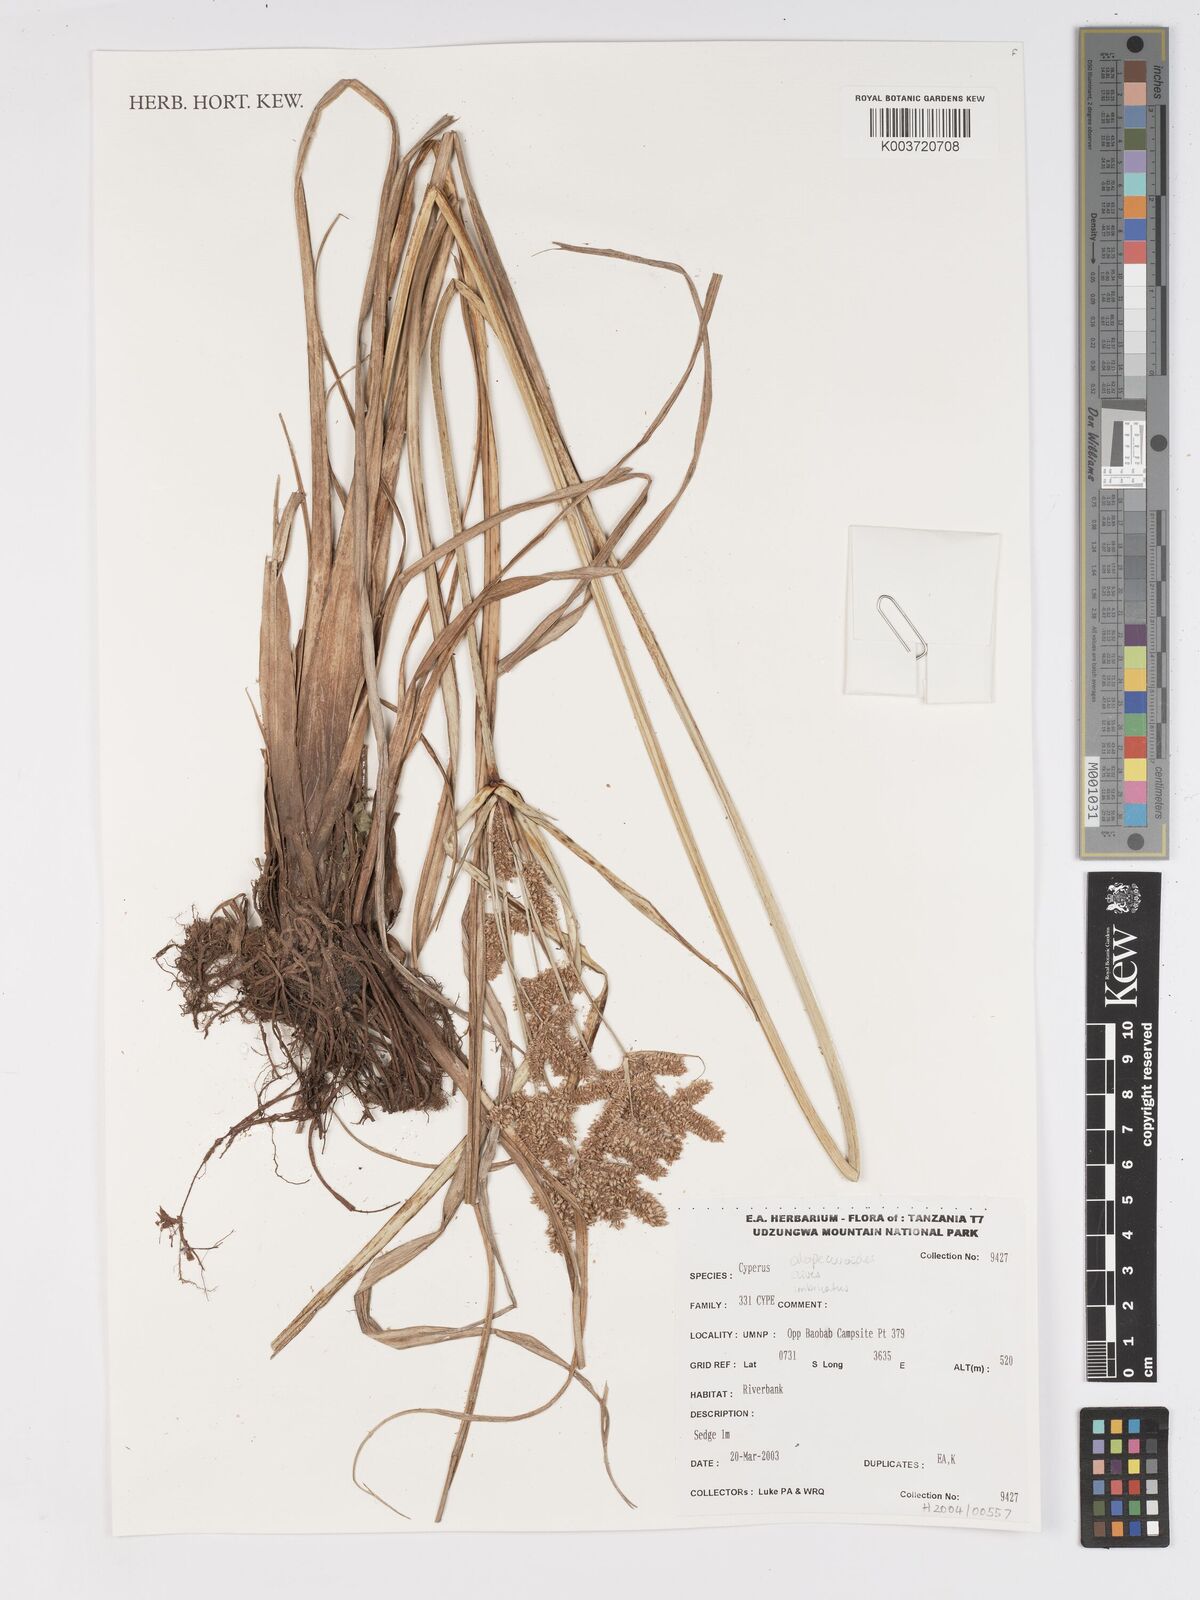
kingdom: Plantae
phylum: Tracheophyta
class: Liliopsida
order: Poales
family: Cyperaceae
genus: Cyperus
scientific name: Cyperus rohlfsii
